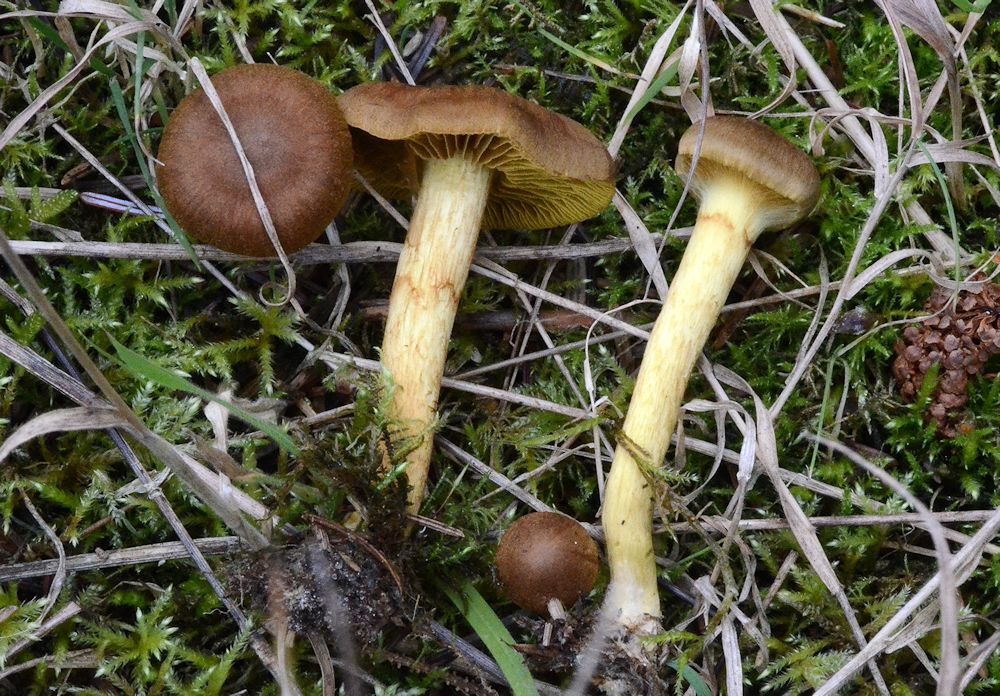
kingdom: Fungi
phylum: Basidiomycota
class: Agaricomycetes
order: Agaricales
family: Cortinariaceae
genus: Cortinarius
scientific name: Cortinarius
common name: gulbladet slørhat
